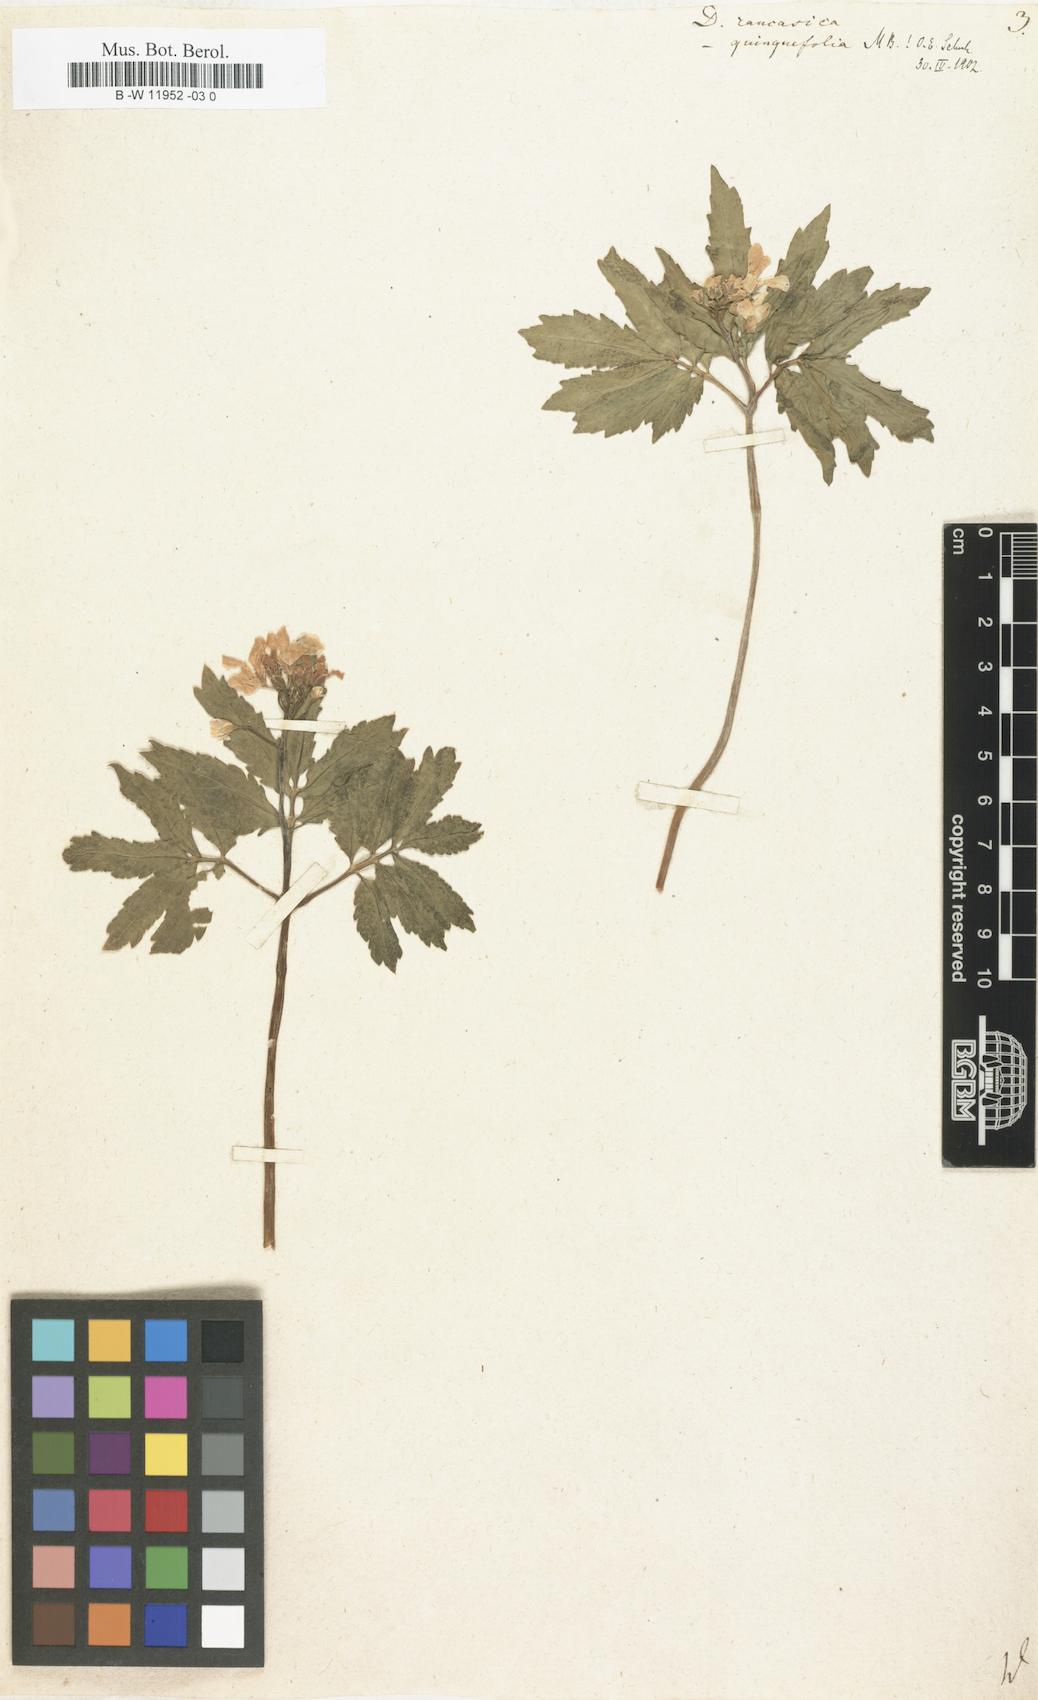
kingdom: Plantae
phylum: Tracheophyta
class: Magnoliopsida
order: Brassicales
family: Brassicaceae
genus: Cardamine
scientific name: Cardamine uliginosa
